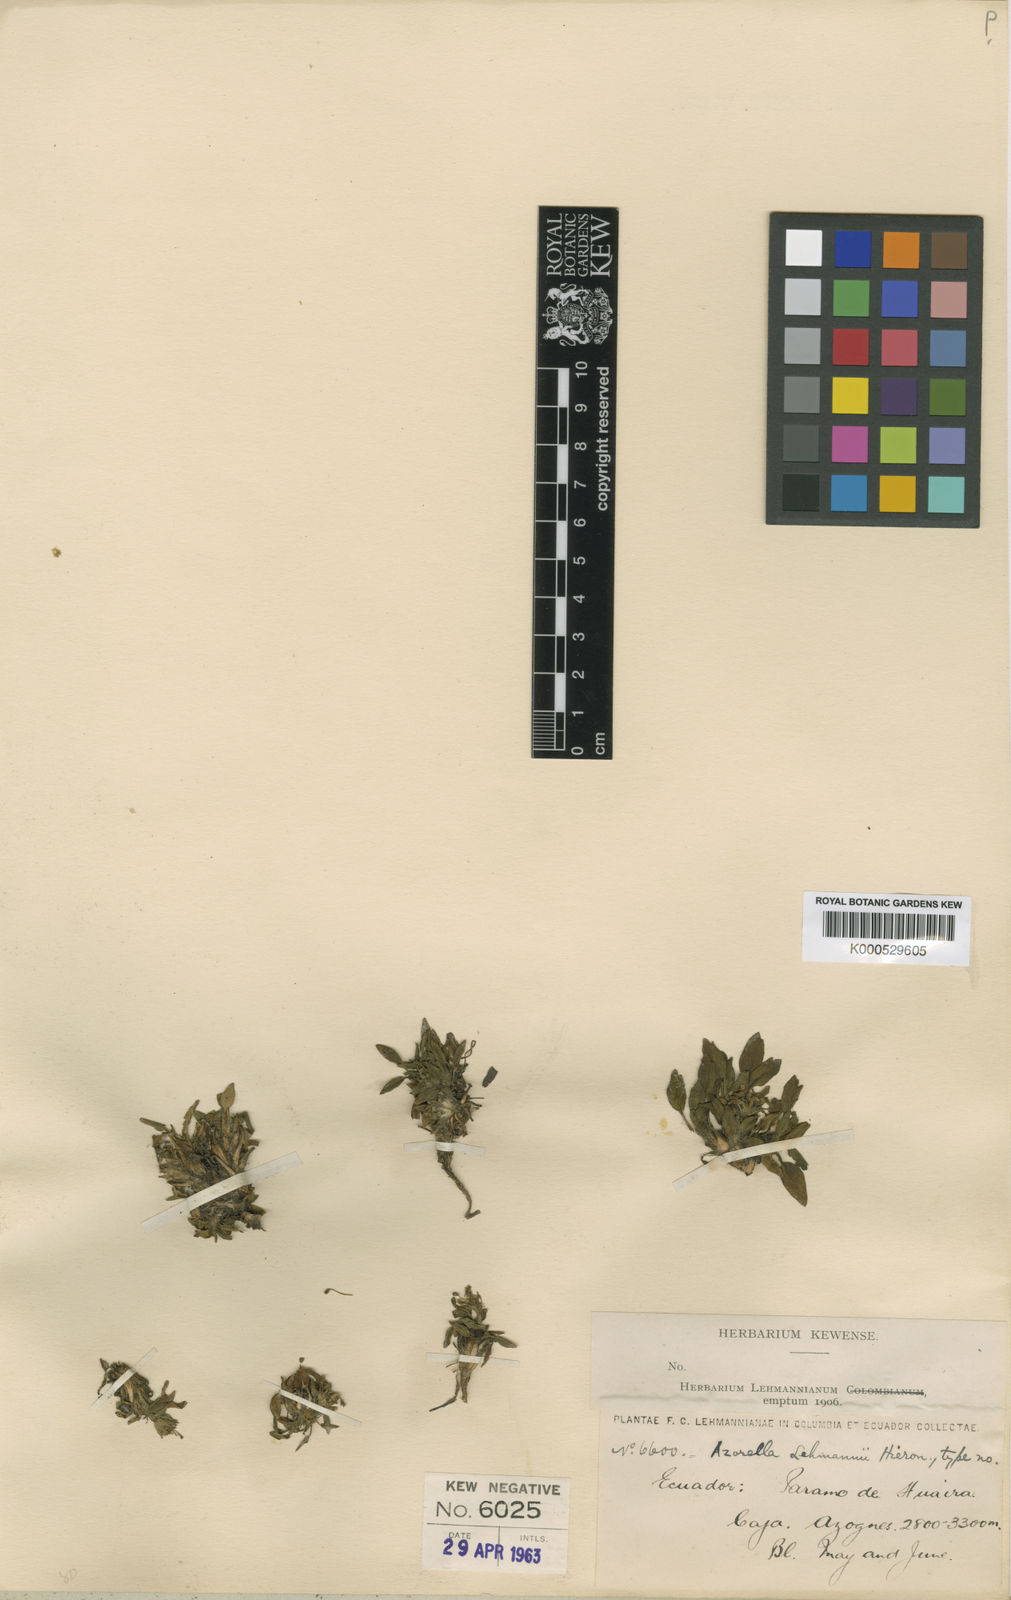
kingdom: Plantae
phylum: Tracheophyta
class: Magnoliopsida
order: Apiales
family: Apiaceae
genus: Azorella
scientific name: Azorella biloba
